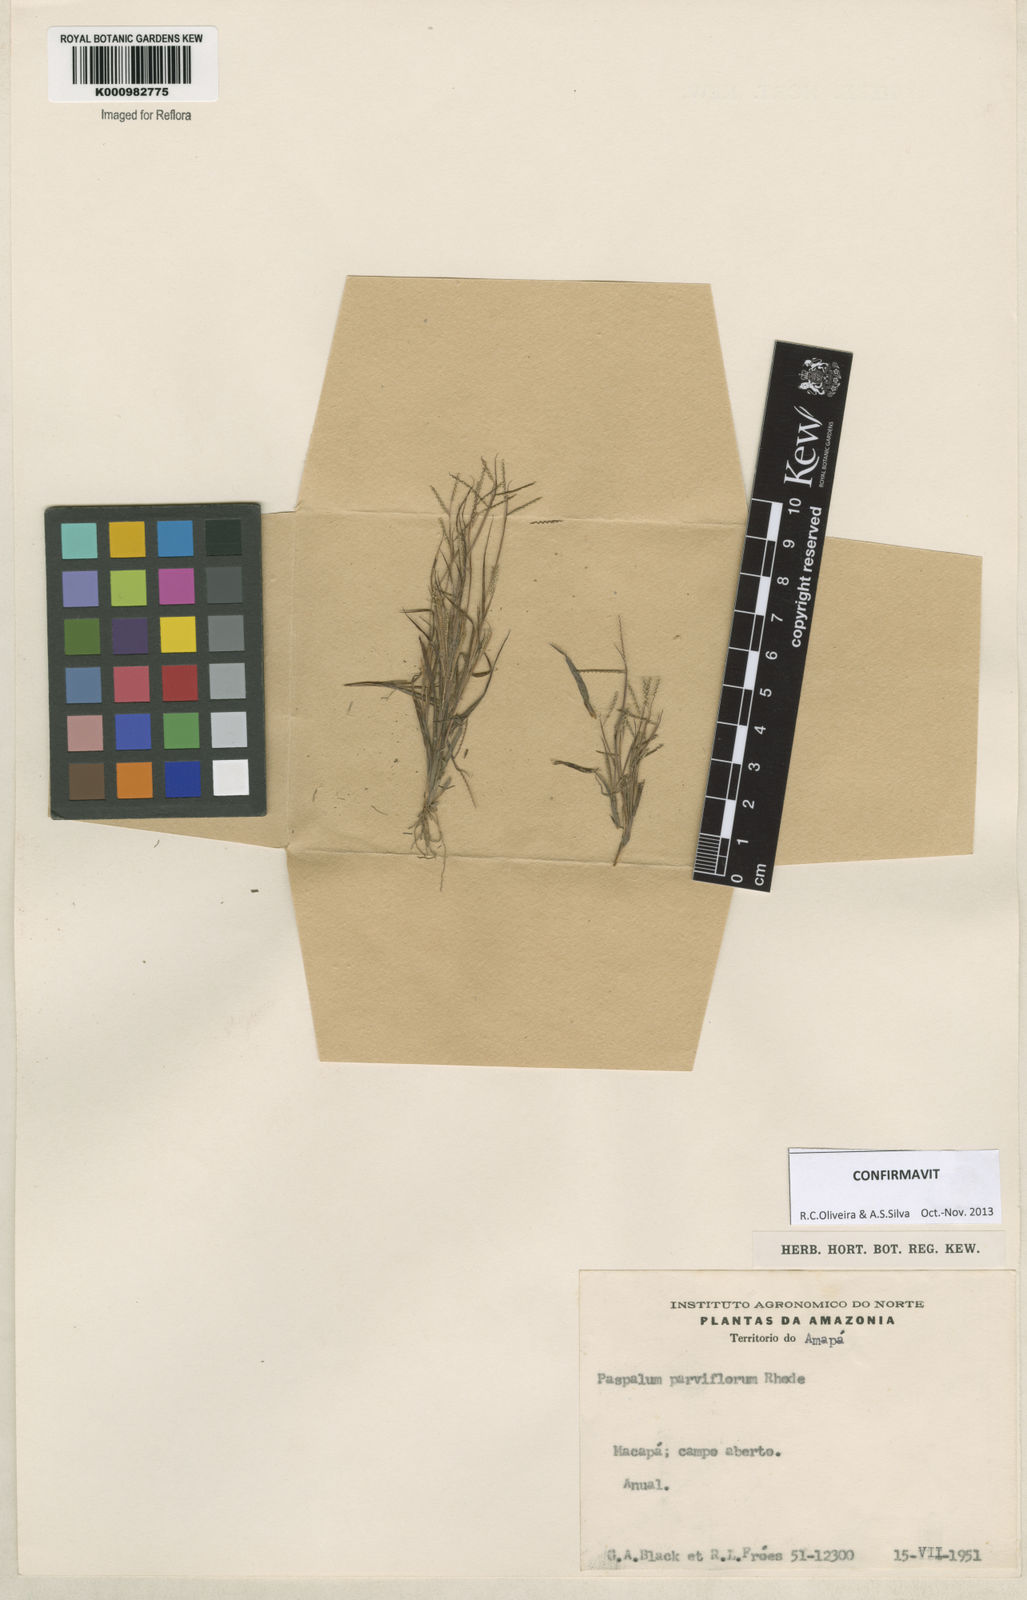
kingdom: Plantae
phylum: Tracheophyta
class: Liliopsida
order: Poales
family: Poaceae
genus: Paspalum
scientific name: Paspalum
